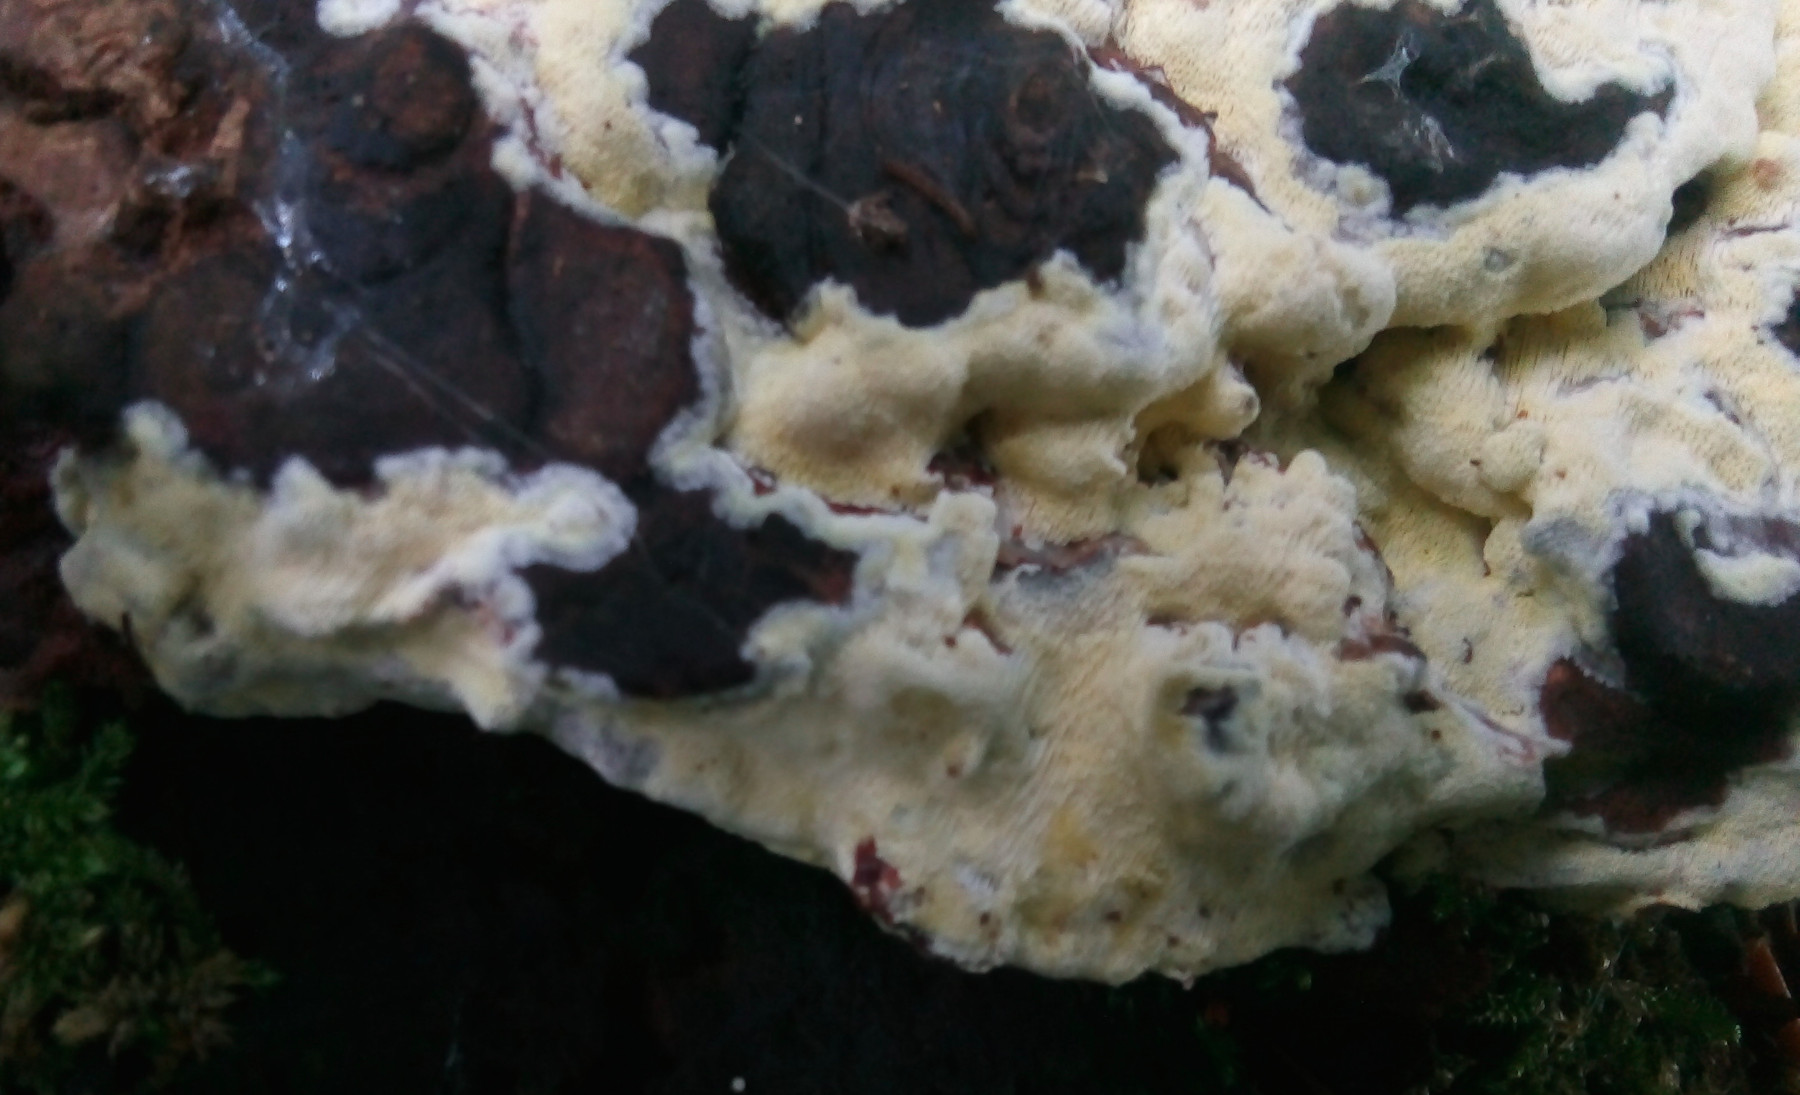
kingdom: Fungi
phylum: Basidiomycota
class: Agaricomycetes
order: Polyporales
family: Fomitopsidaceae
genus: Daedalea
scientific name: Daedalea xantha
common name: gul sejporesvamp
